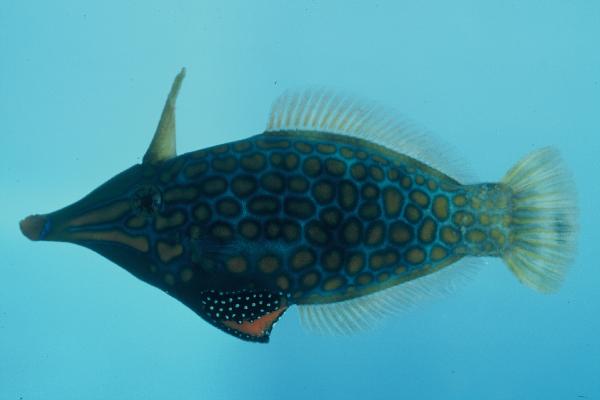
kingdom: Animalia
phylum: Chordata
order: Tetraodontiformes
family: Monacanthidae
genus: Oxymonacanthus
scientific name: Oxymonacanthus longirostris
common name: Beaked leatherjacket
